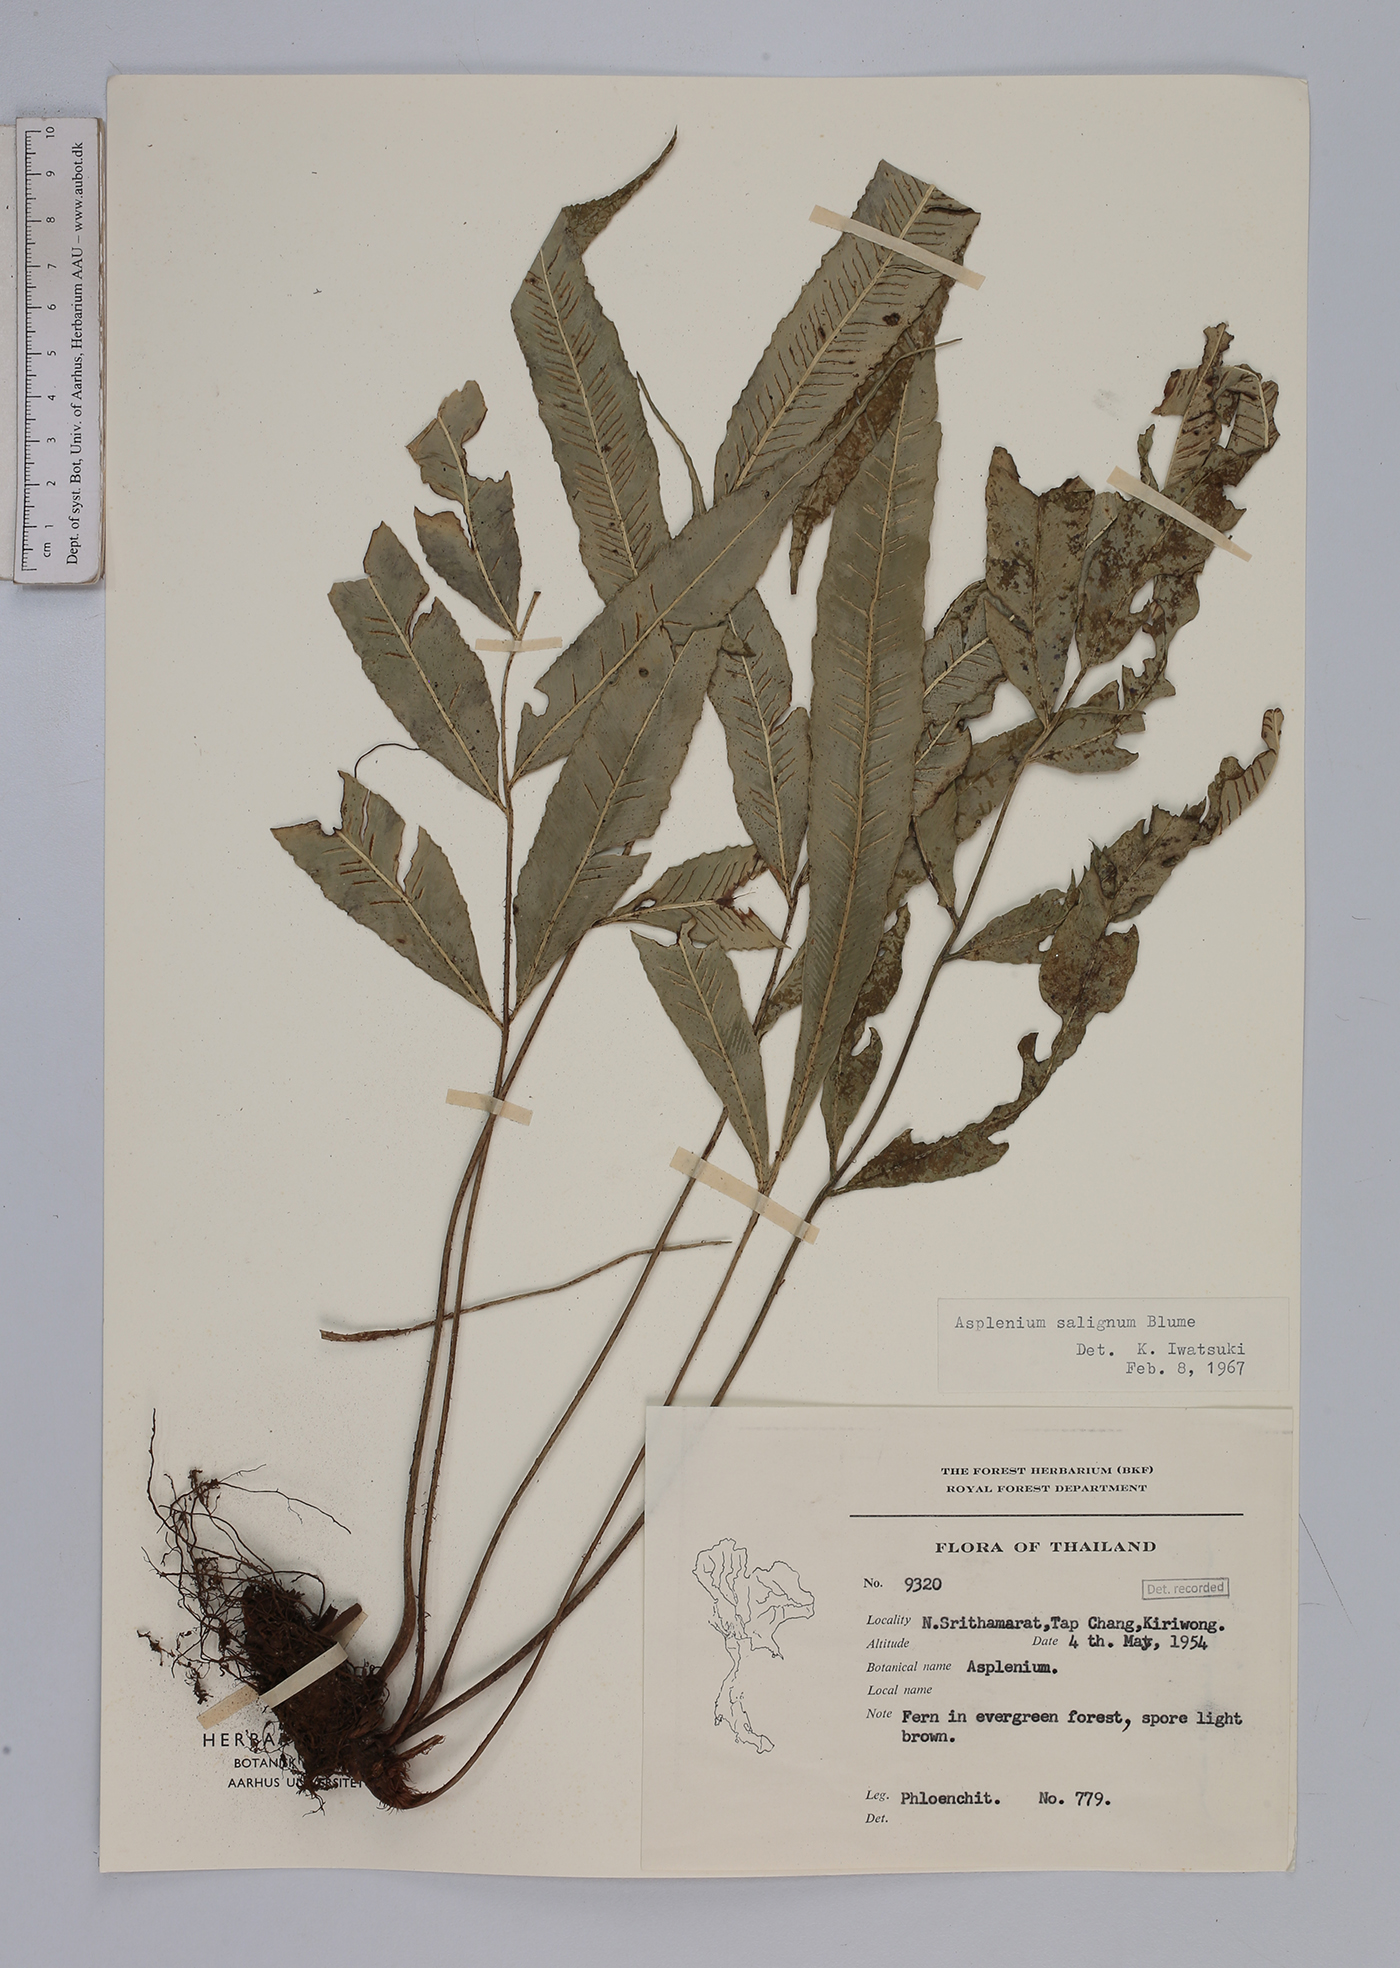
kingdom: Plantae
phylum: Tracheophyta
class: Polypodiopsida
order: Polypodiales
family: Aspleniaceae
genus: Asplenium
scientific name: Asplenium salignum
